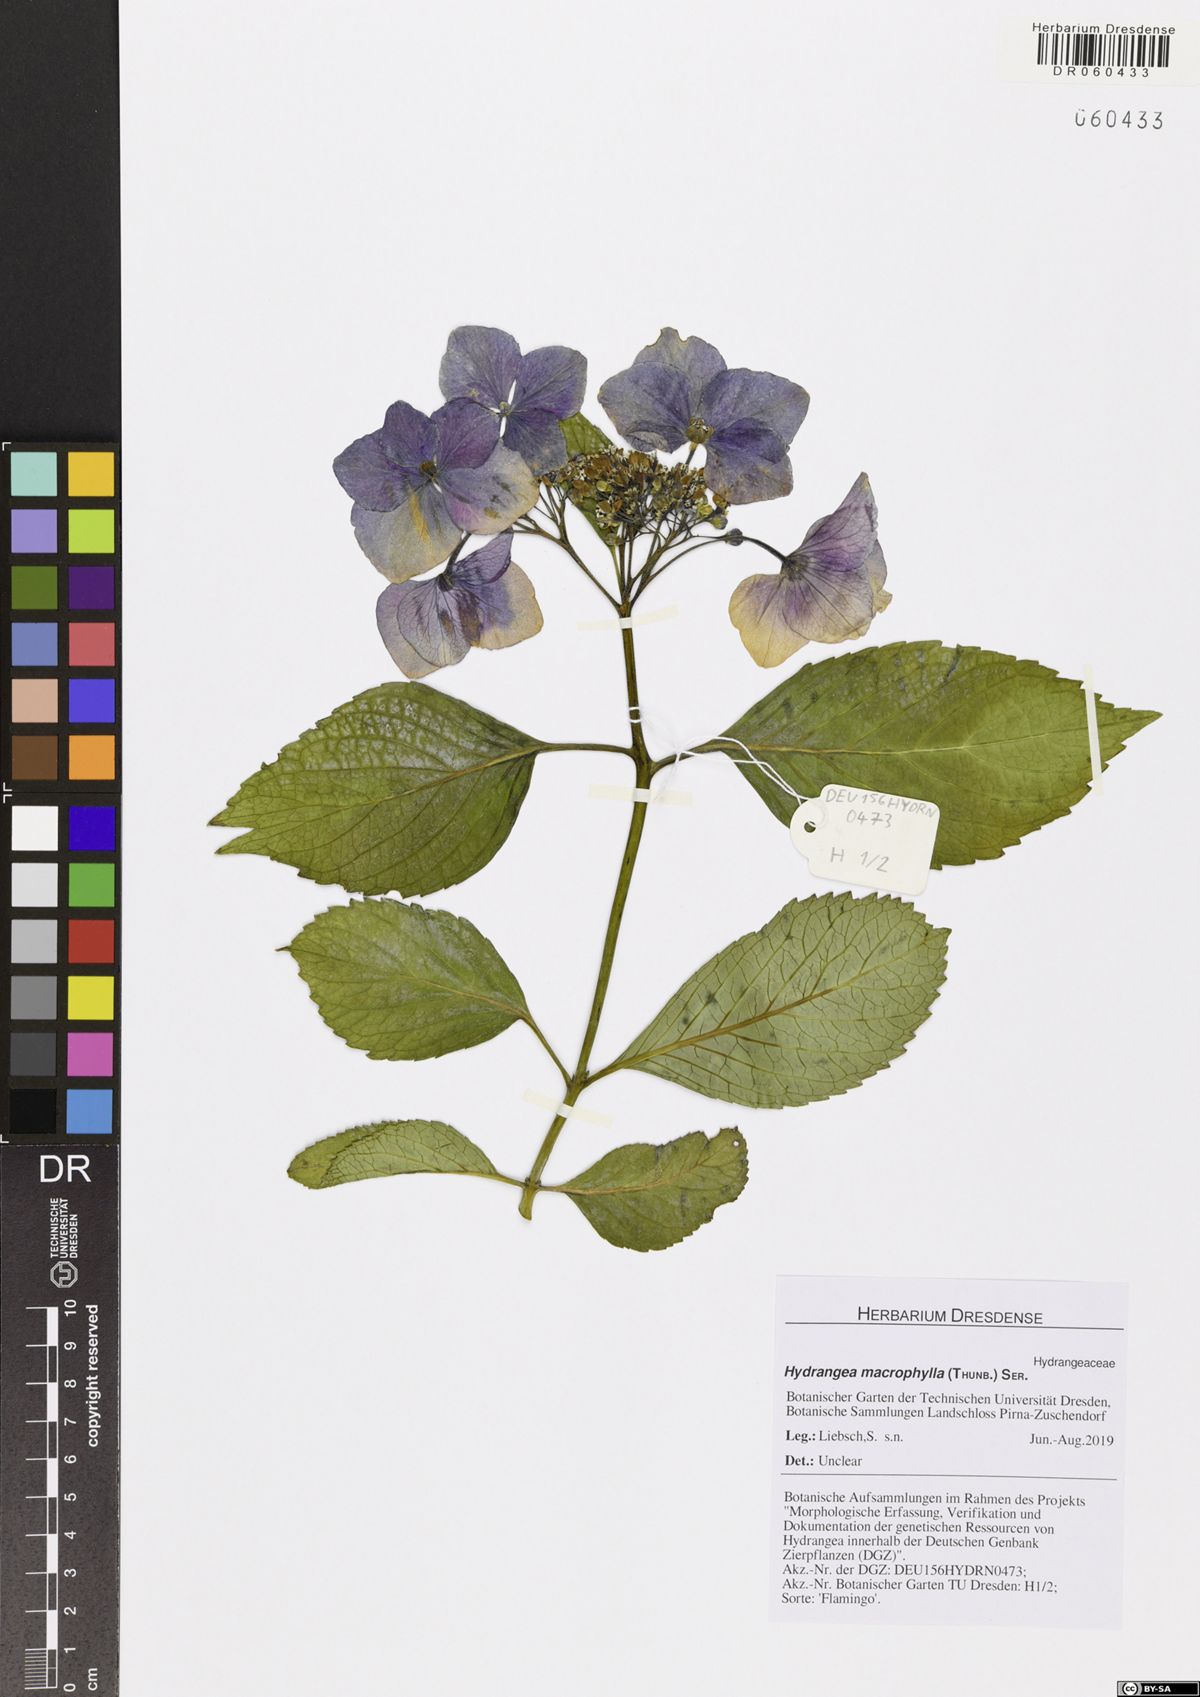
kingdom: Plantae
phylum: Tracheophyta
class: Magnoliopsida
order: Cornales
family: Hydrangeaceae
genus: Hydrangea
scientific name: Hydrangea macrophylla
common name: Hydrangea
